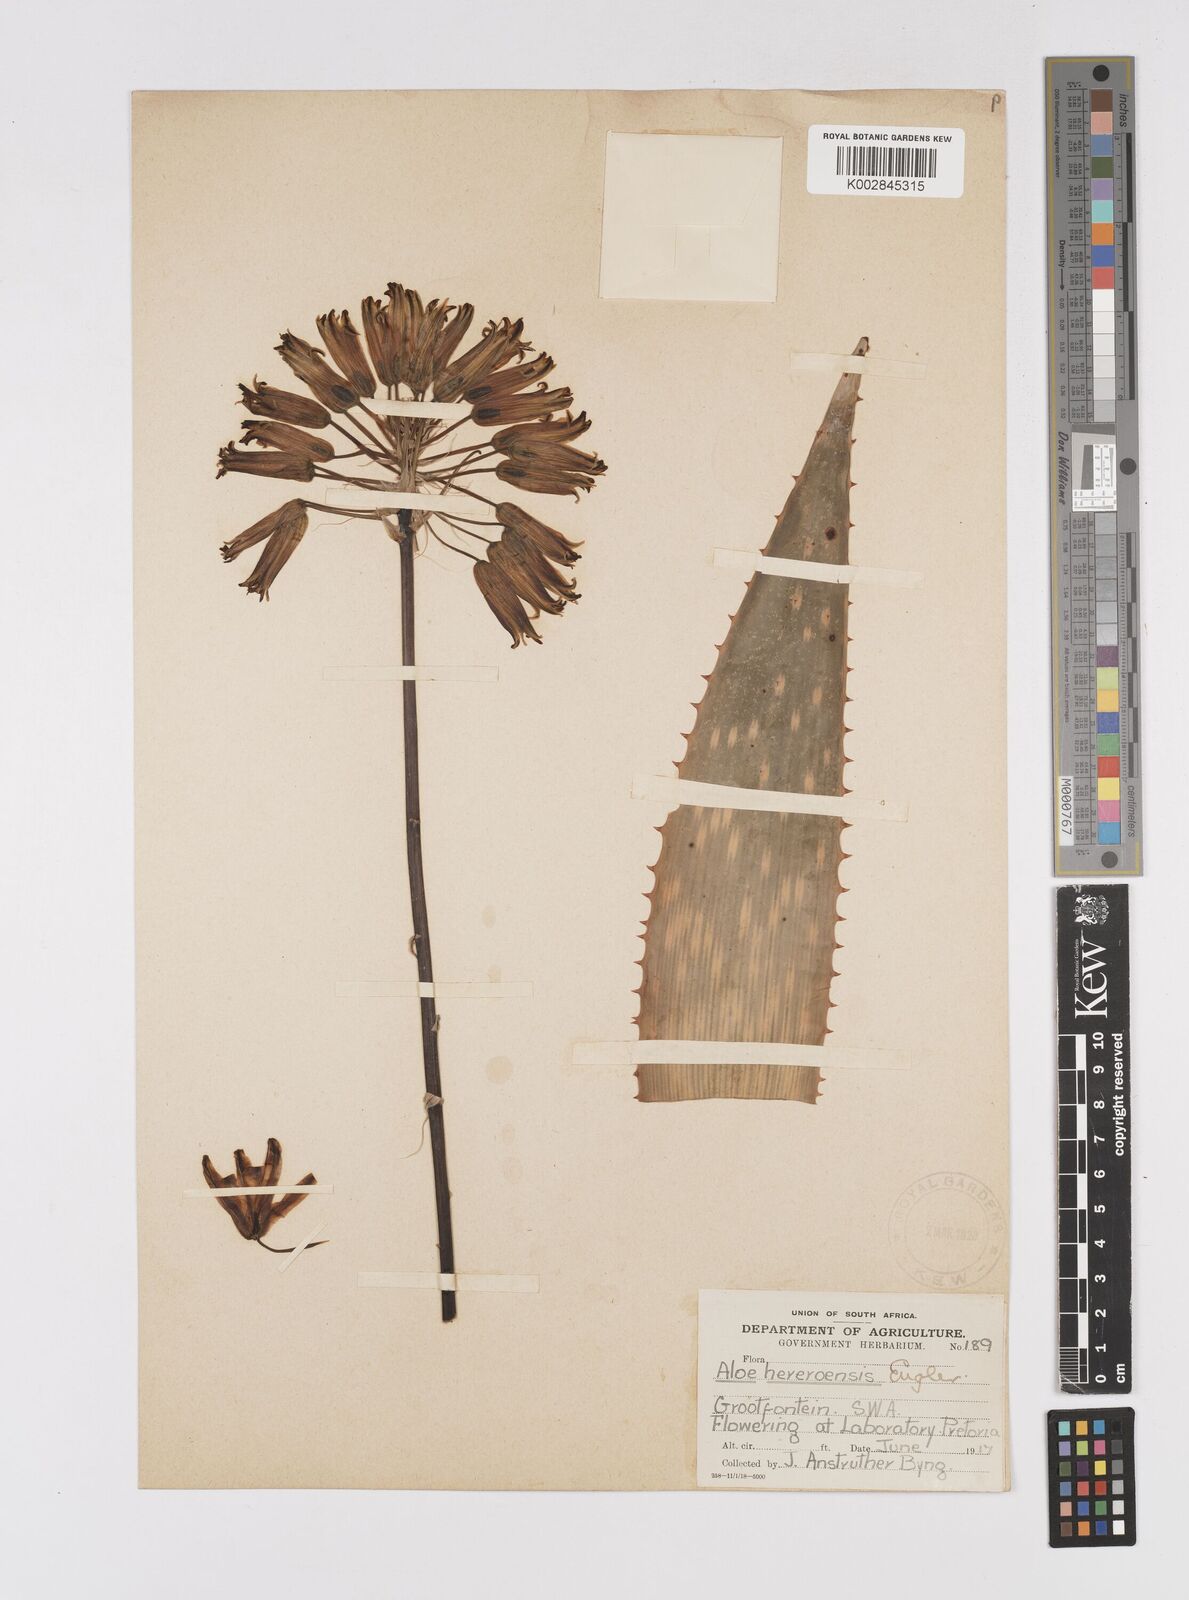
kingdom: Plantae
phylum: Tracheophyta
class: Liliopsida
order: Asparagales
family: Asphodelaceae
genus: Aloe
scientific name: Aloe hereroensis
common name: Herero aloe
